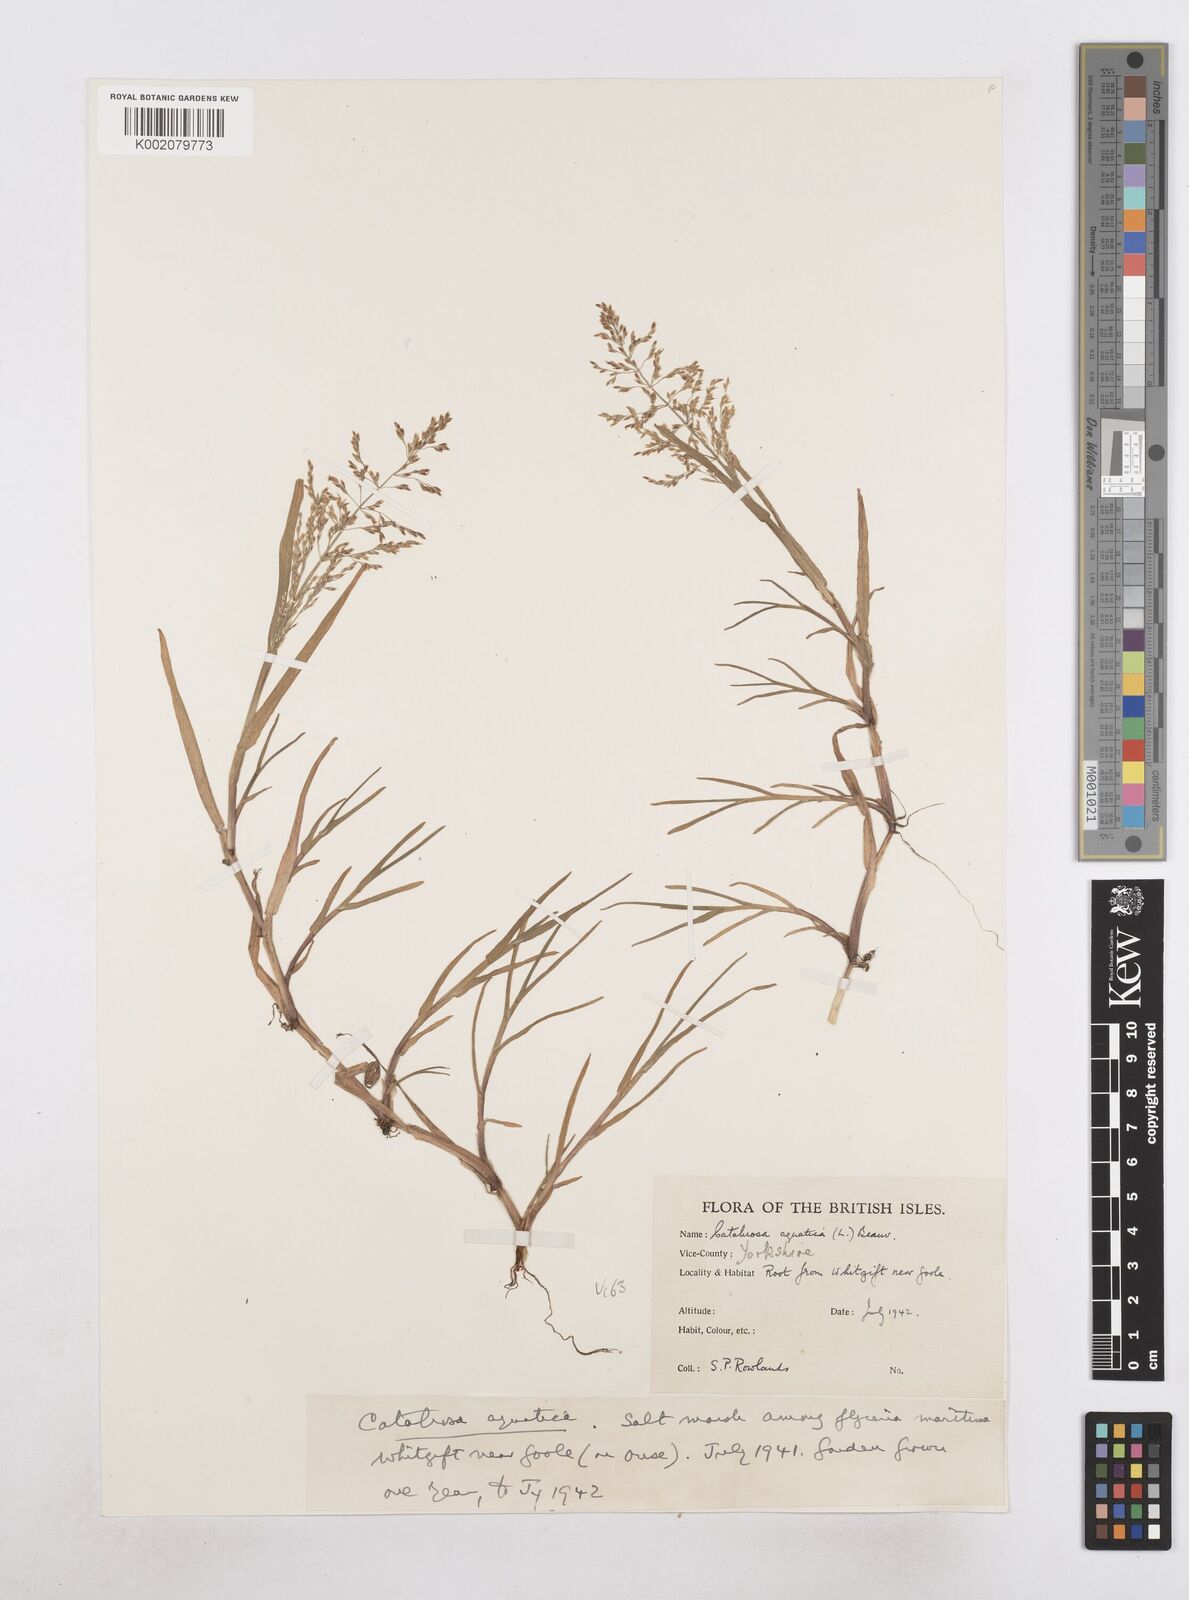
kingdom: Plantae
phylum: Tracheophyta
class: Liliopsida
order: Poales
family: Poaceae
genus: Catabrosa
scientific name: Catabrosa aquatica
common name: Whorl-grass
